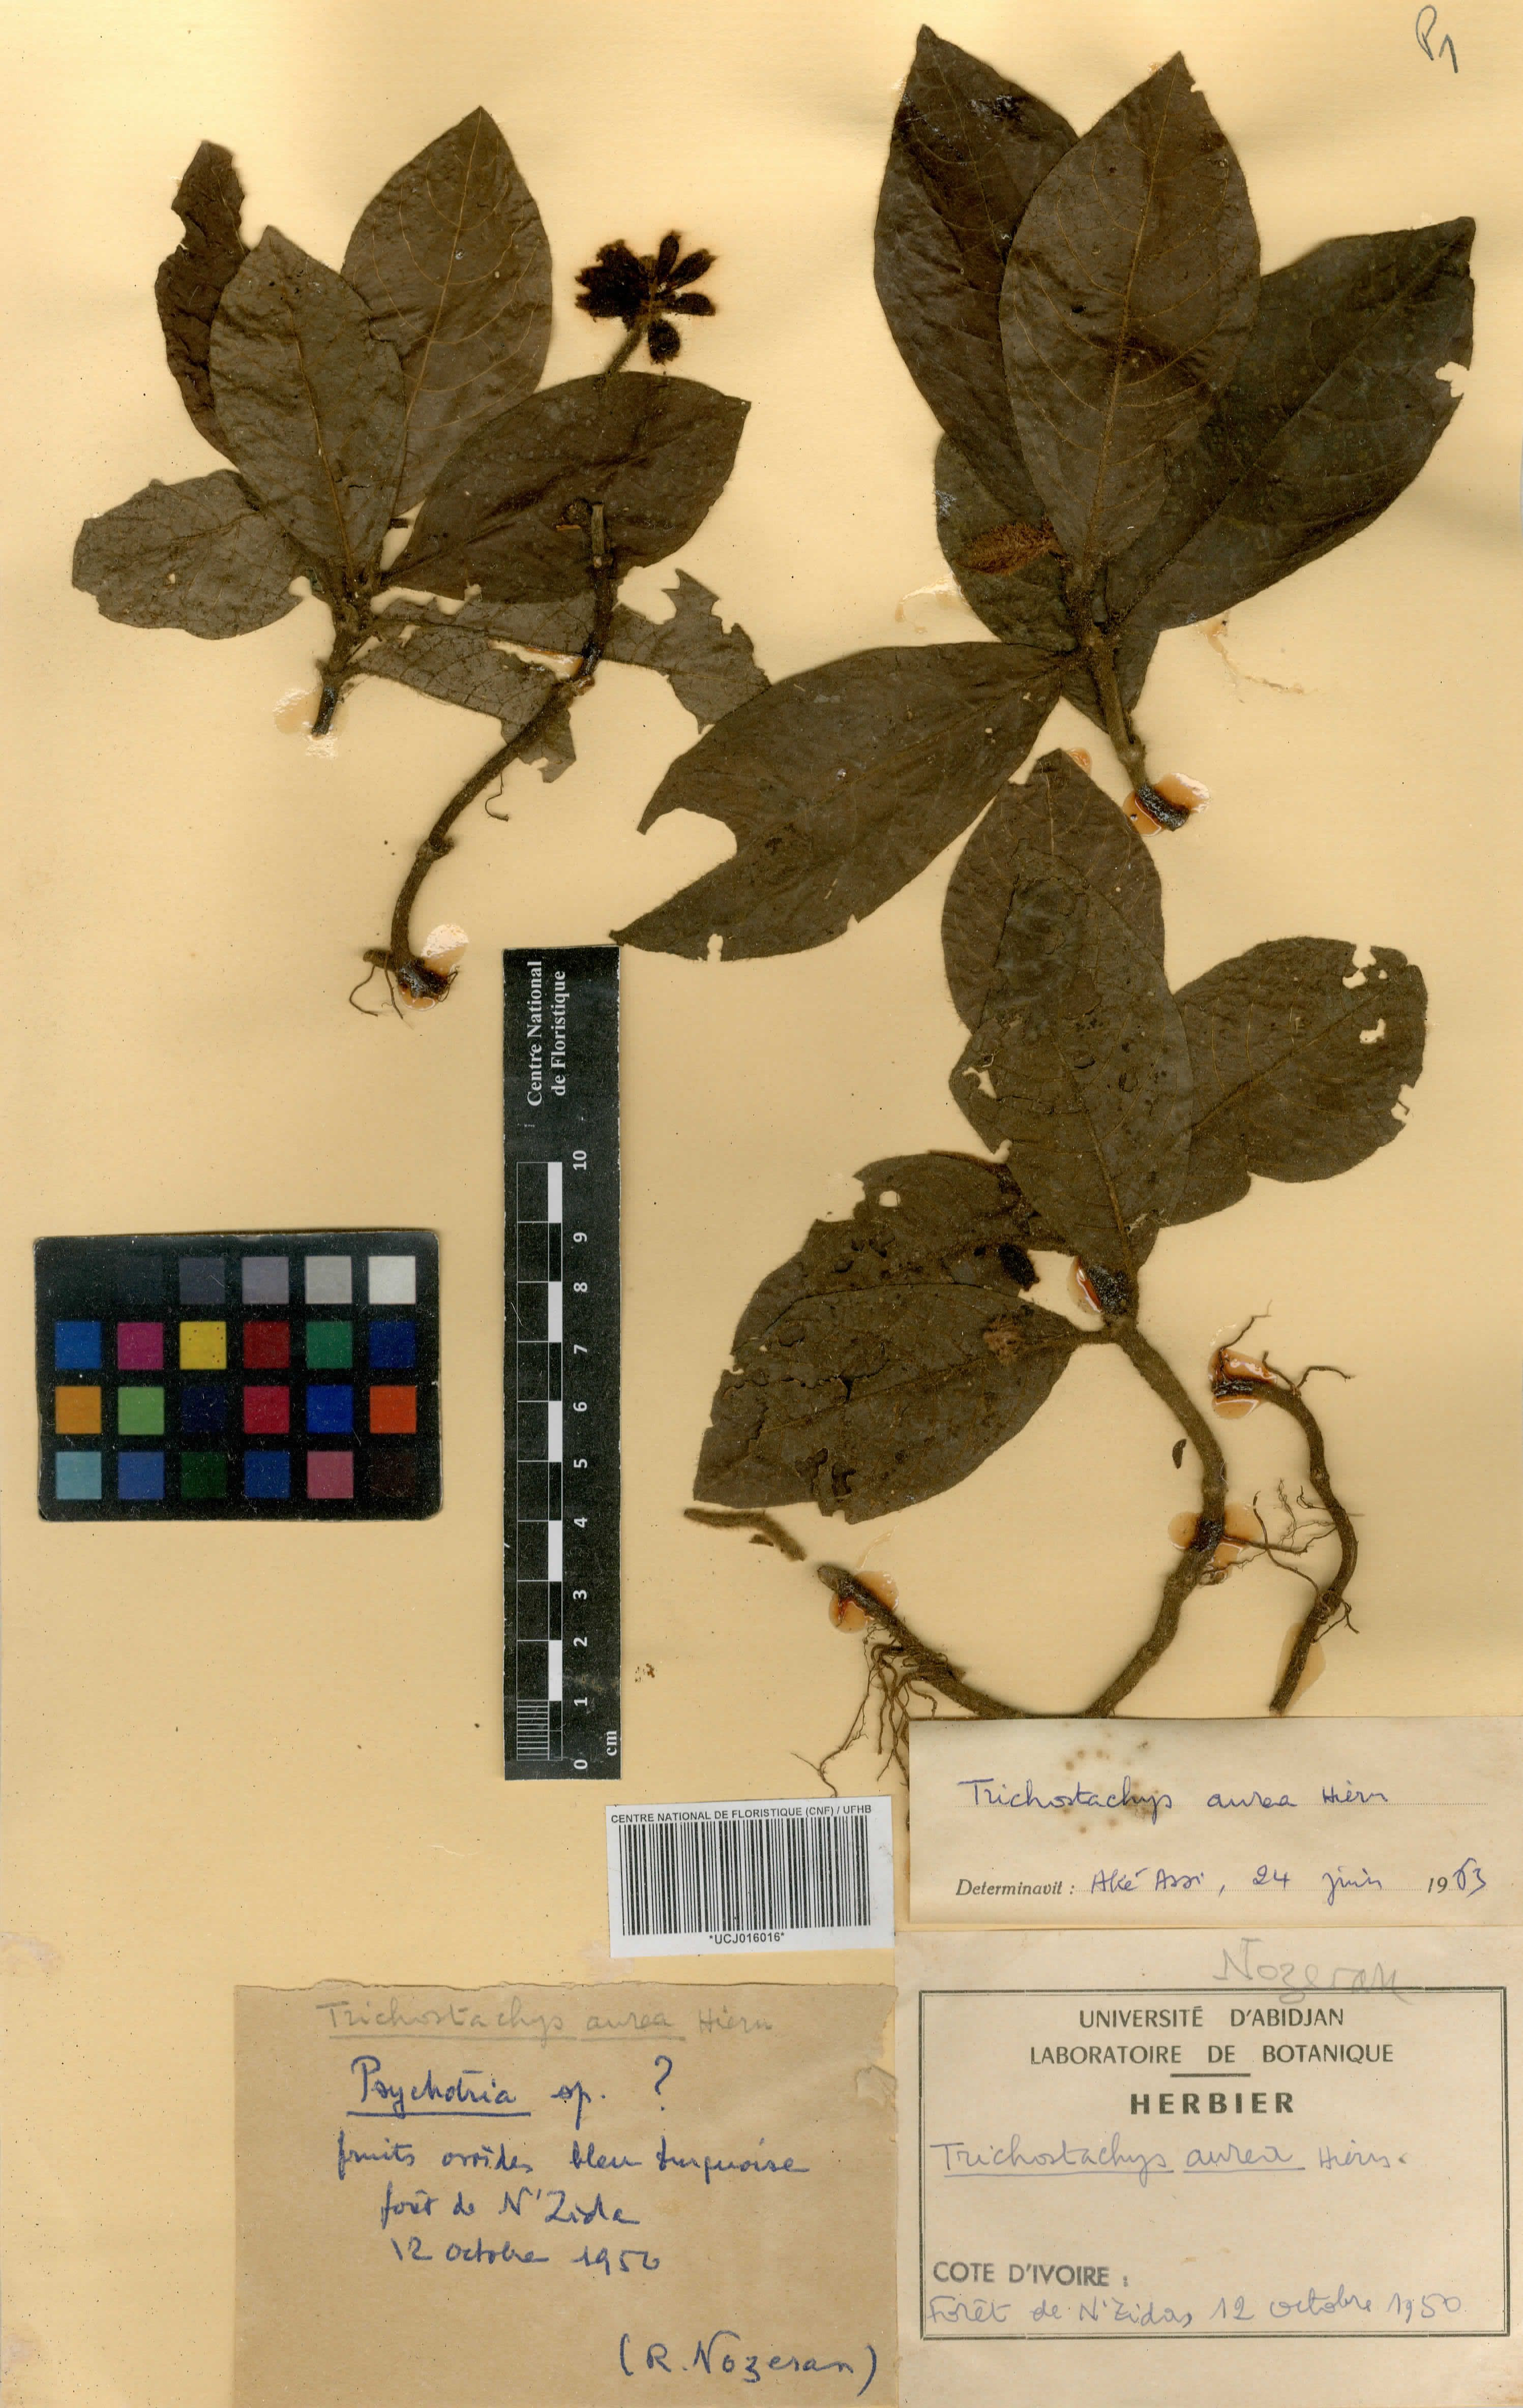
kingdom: Plantae
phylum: Tracheophyta
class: Magnoliopsida
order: Gentianales
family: Rubiaceae
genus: Trichostachys
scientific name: Trichostachys aurea
